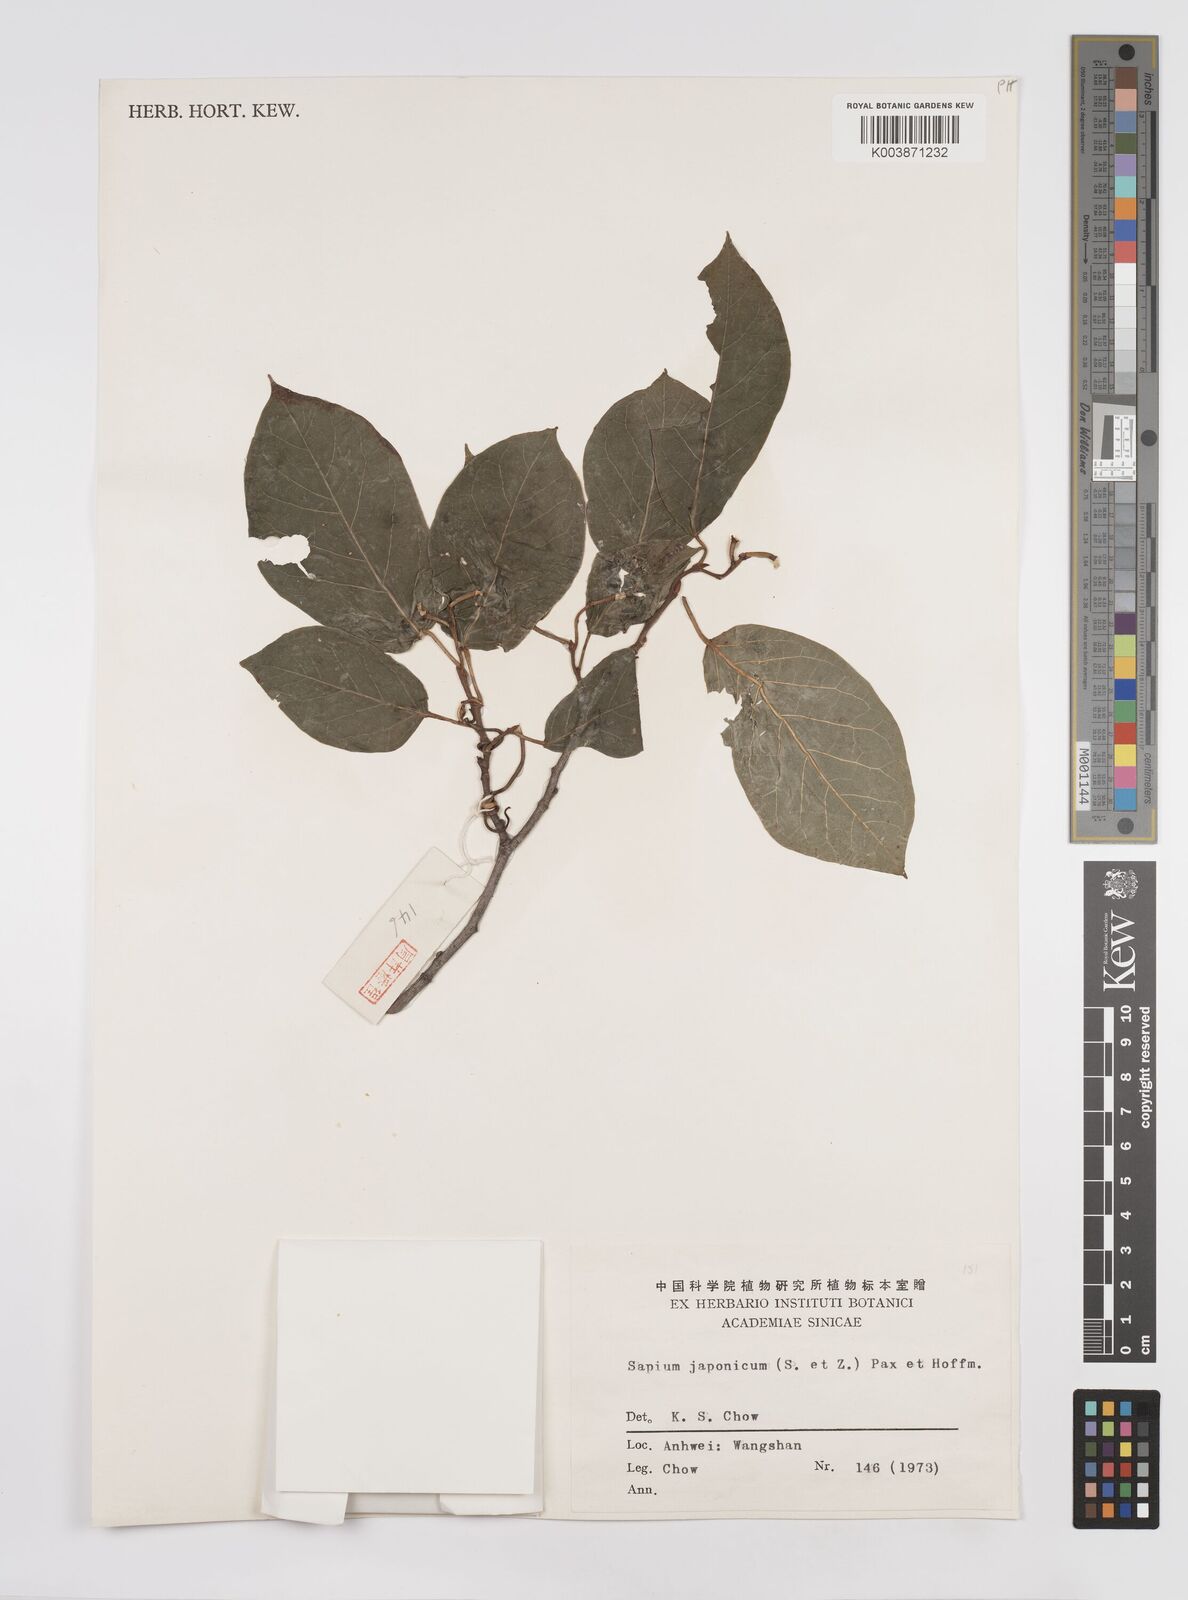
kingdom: Plantae
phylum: Tracheophyta
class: Magnoliopsida
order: Malpighiales
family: Euphorbiaceae
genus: Neoshirakia
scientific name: Neoshirakia japonica
